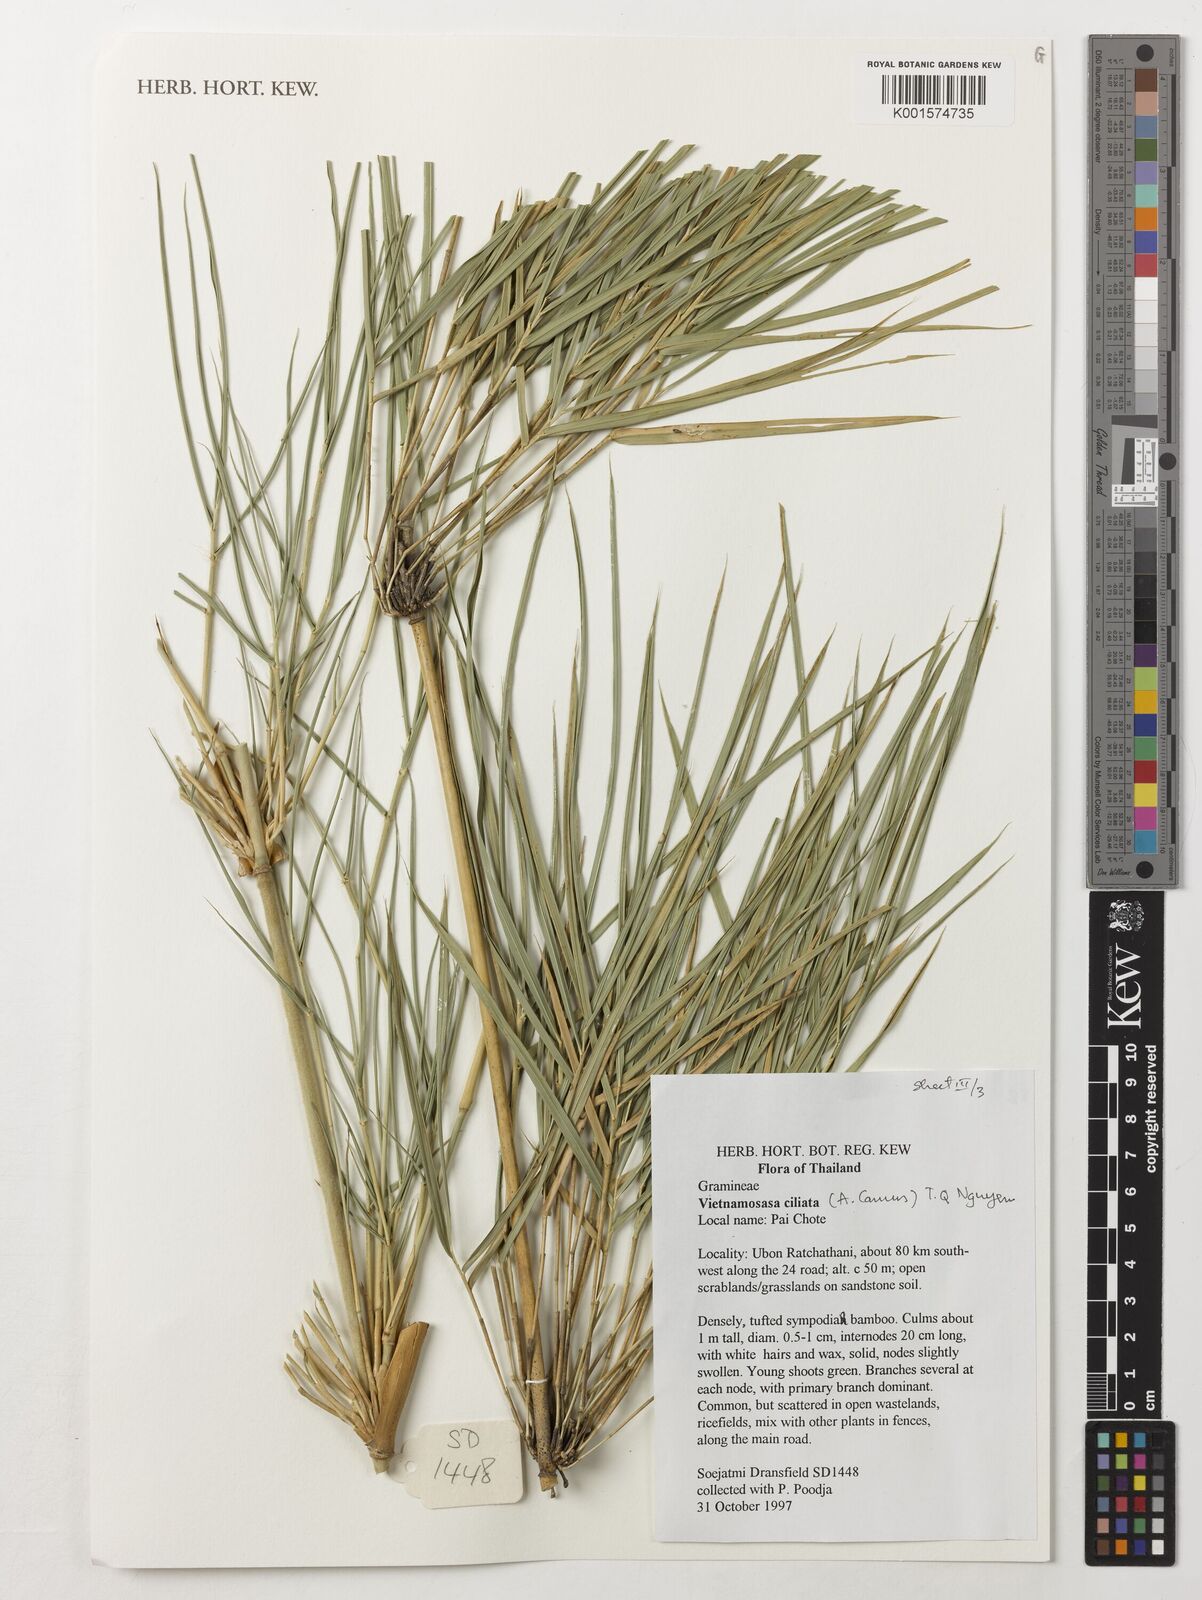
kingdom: Plantae
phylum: Tracheophyta
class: Liliopsida
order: Poales
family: Poaceae
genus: Vietnamosasa
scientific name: Vietnamosasa ciliata
